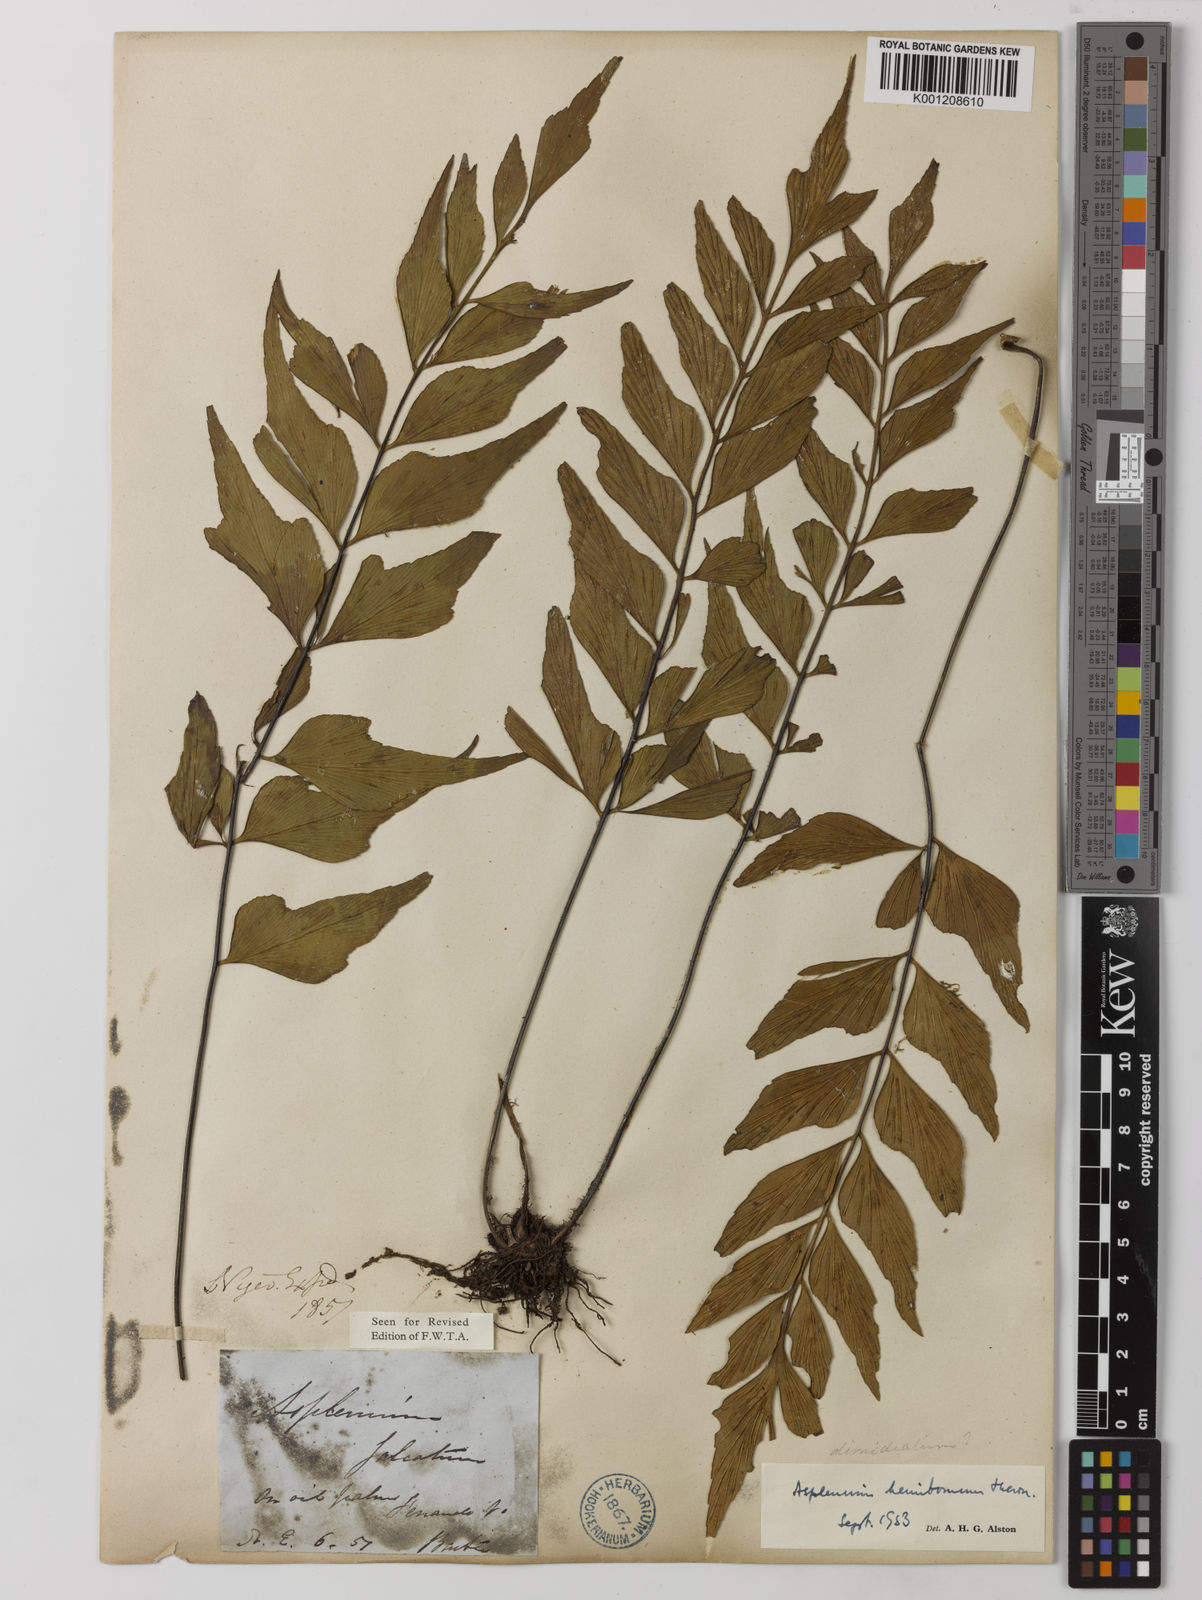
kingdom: Plantae
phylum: Tracheophyta
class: Polypodiopsida
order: Polypodiales
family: Aspleniaceae
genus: Asplenium
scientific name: Asplenium hemitomum
